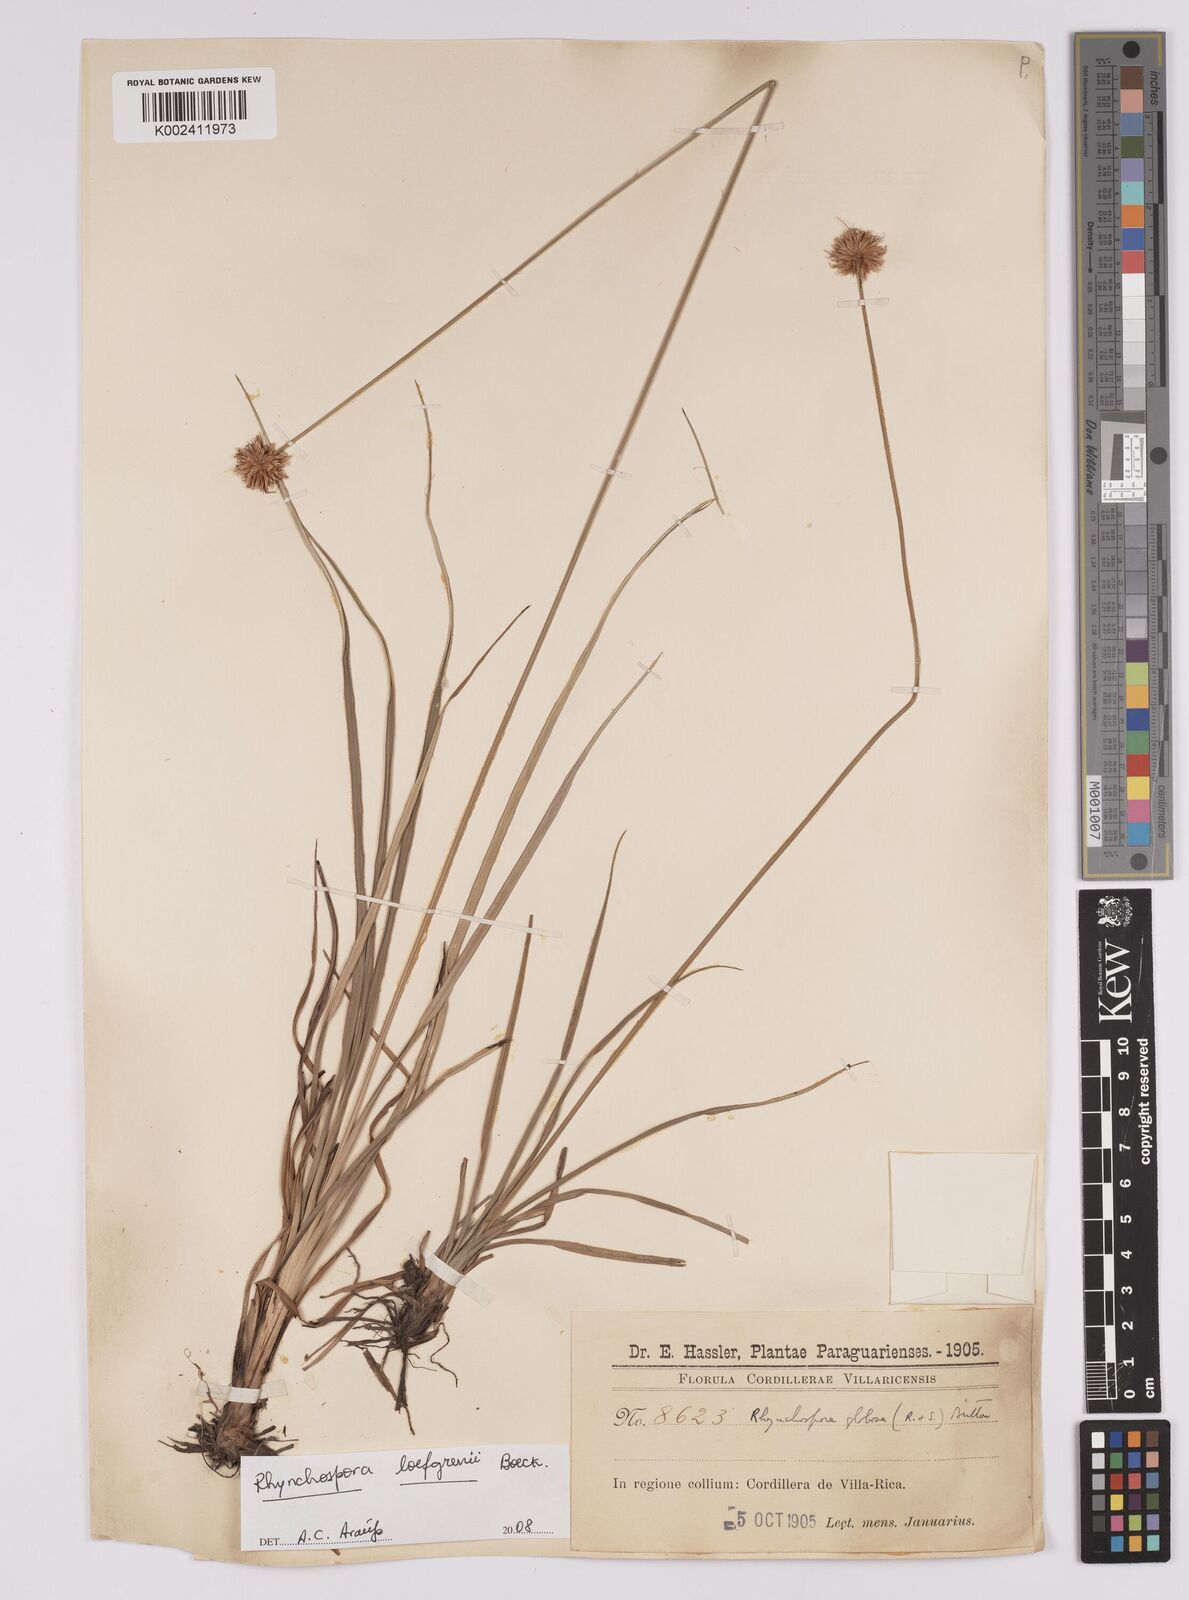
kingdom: Plantae
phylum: Tracheophyta
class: Liliopsida
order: Poales
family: Cyperaceae
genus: Rhynchospora
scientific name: Rhynchospora loefgrenii
